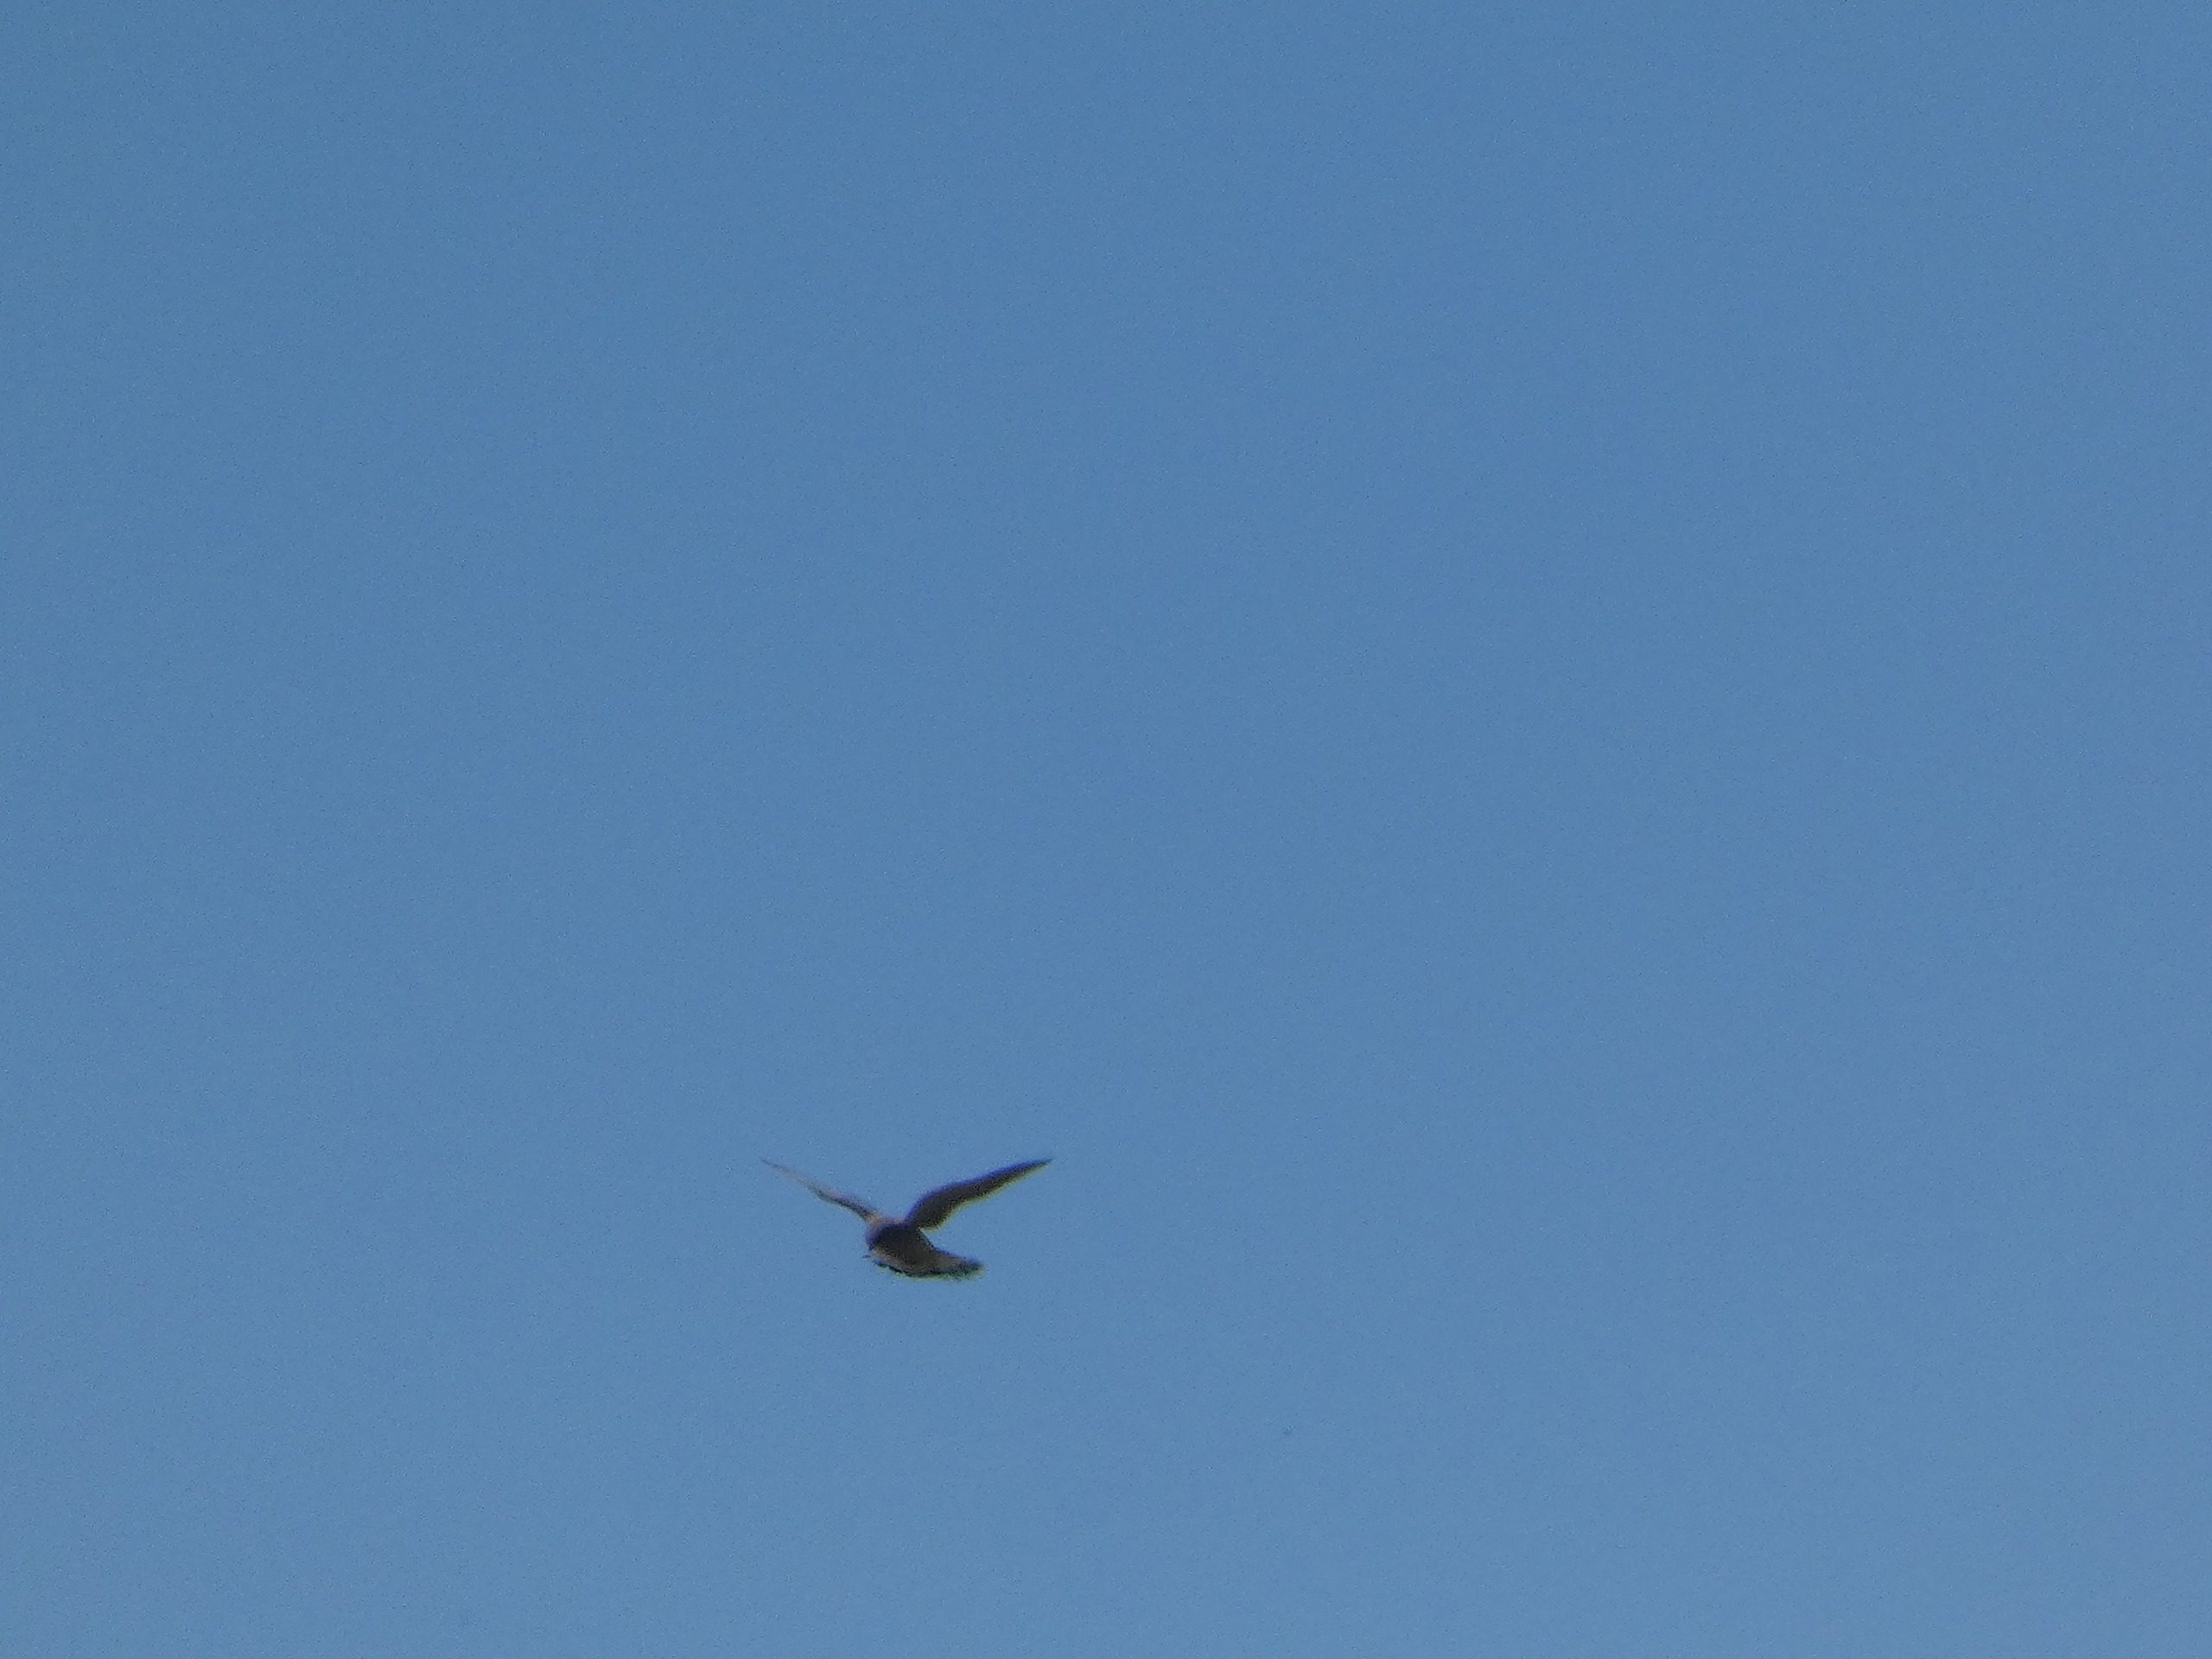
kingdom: Animalia
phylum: Chordata
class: Aves
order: Falconiformes
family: Falconidae
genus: Falco
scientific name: Falco tinnunculus
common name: Tårnfalk
